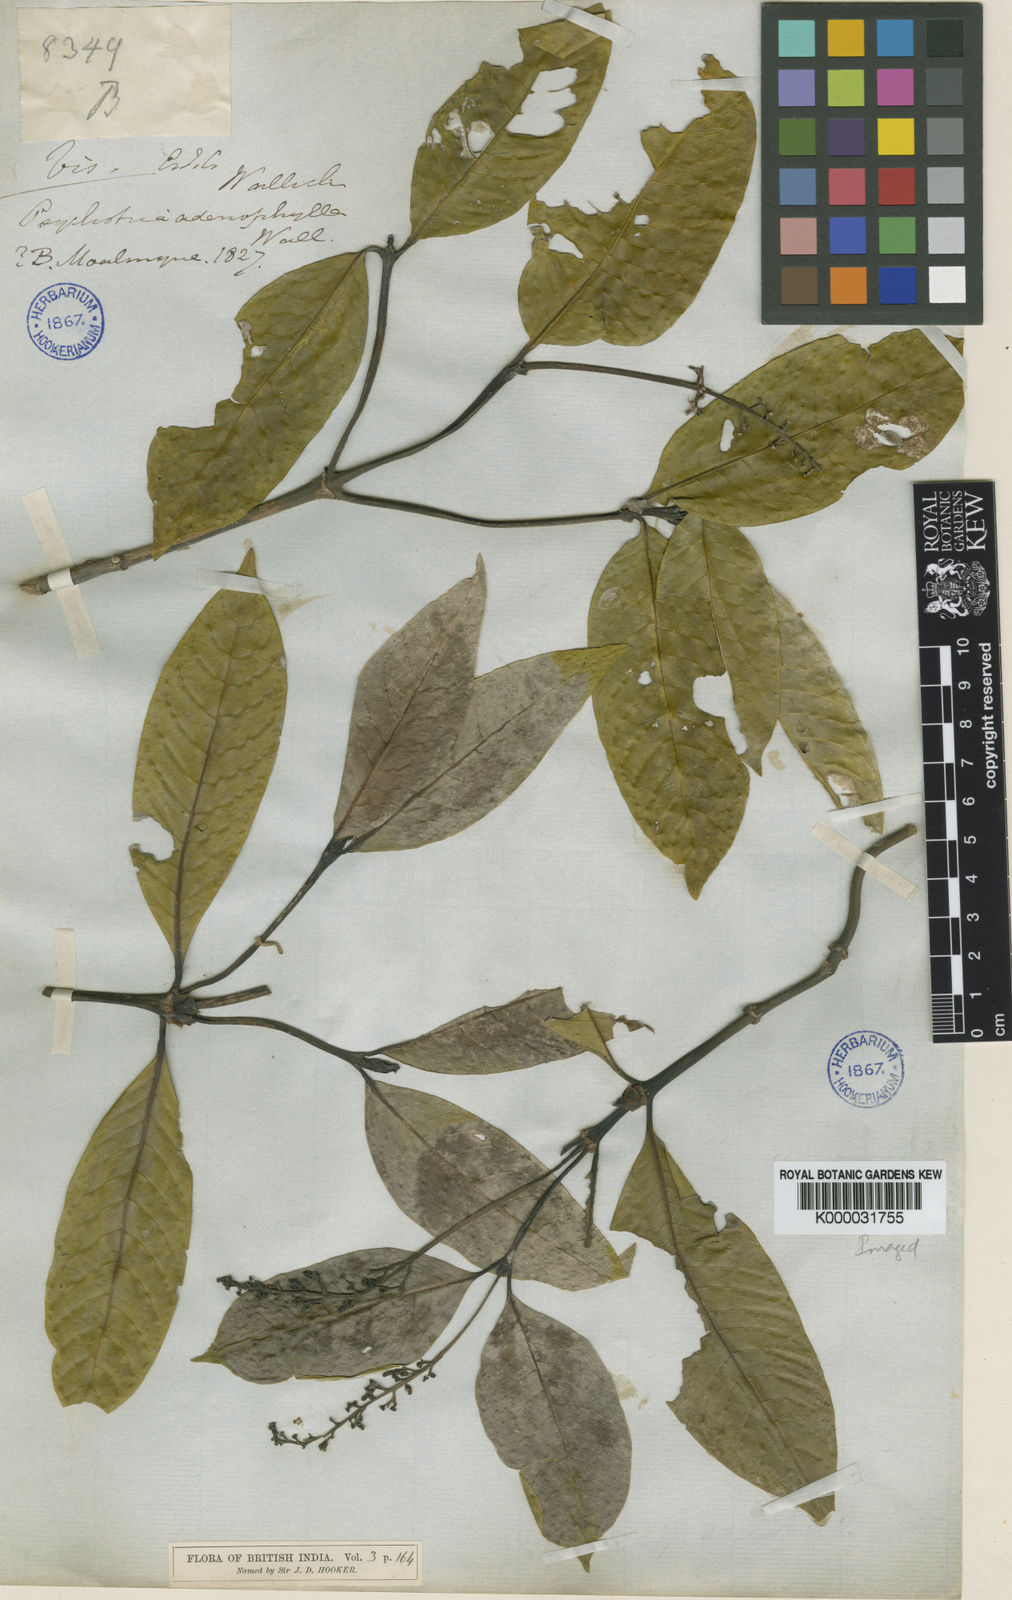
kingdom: Plantae
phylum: Tracheophyta
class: Magnoliopsida
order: Gentianales
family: Rubiaceae
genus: Psychotria
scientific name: Psychotria adenophylla
